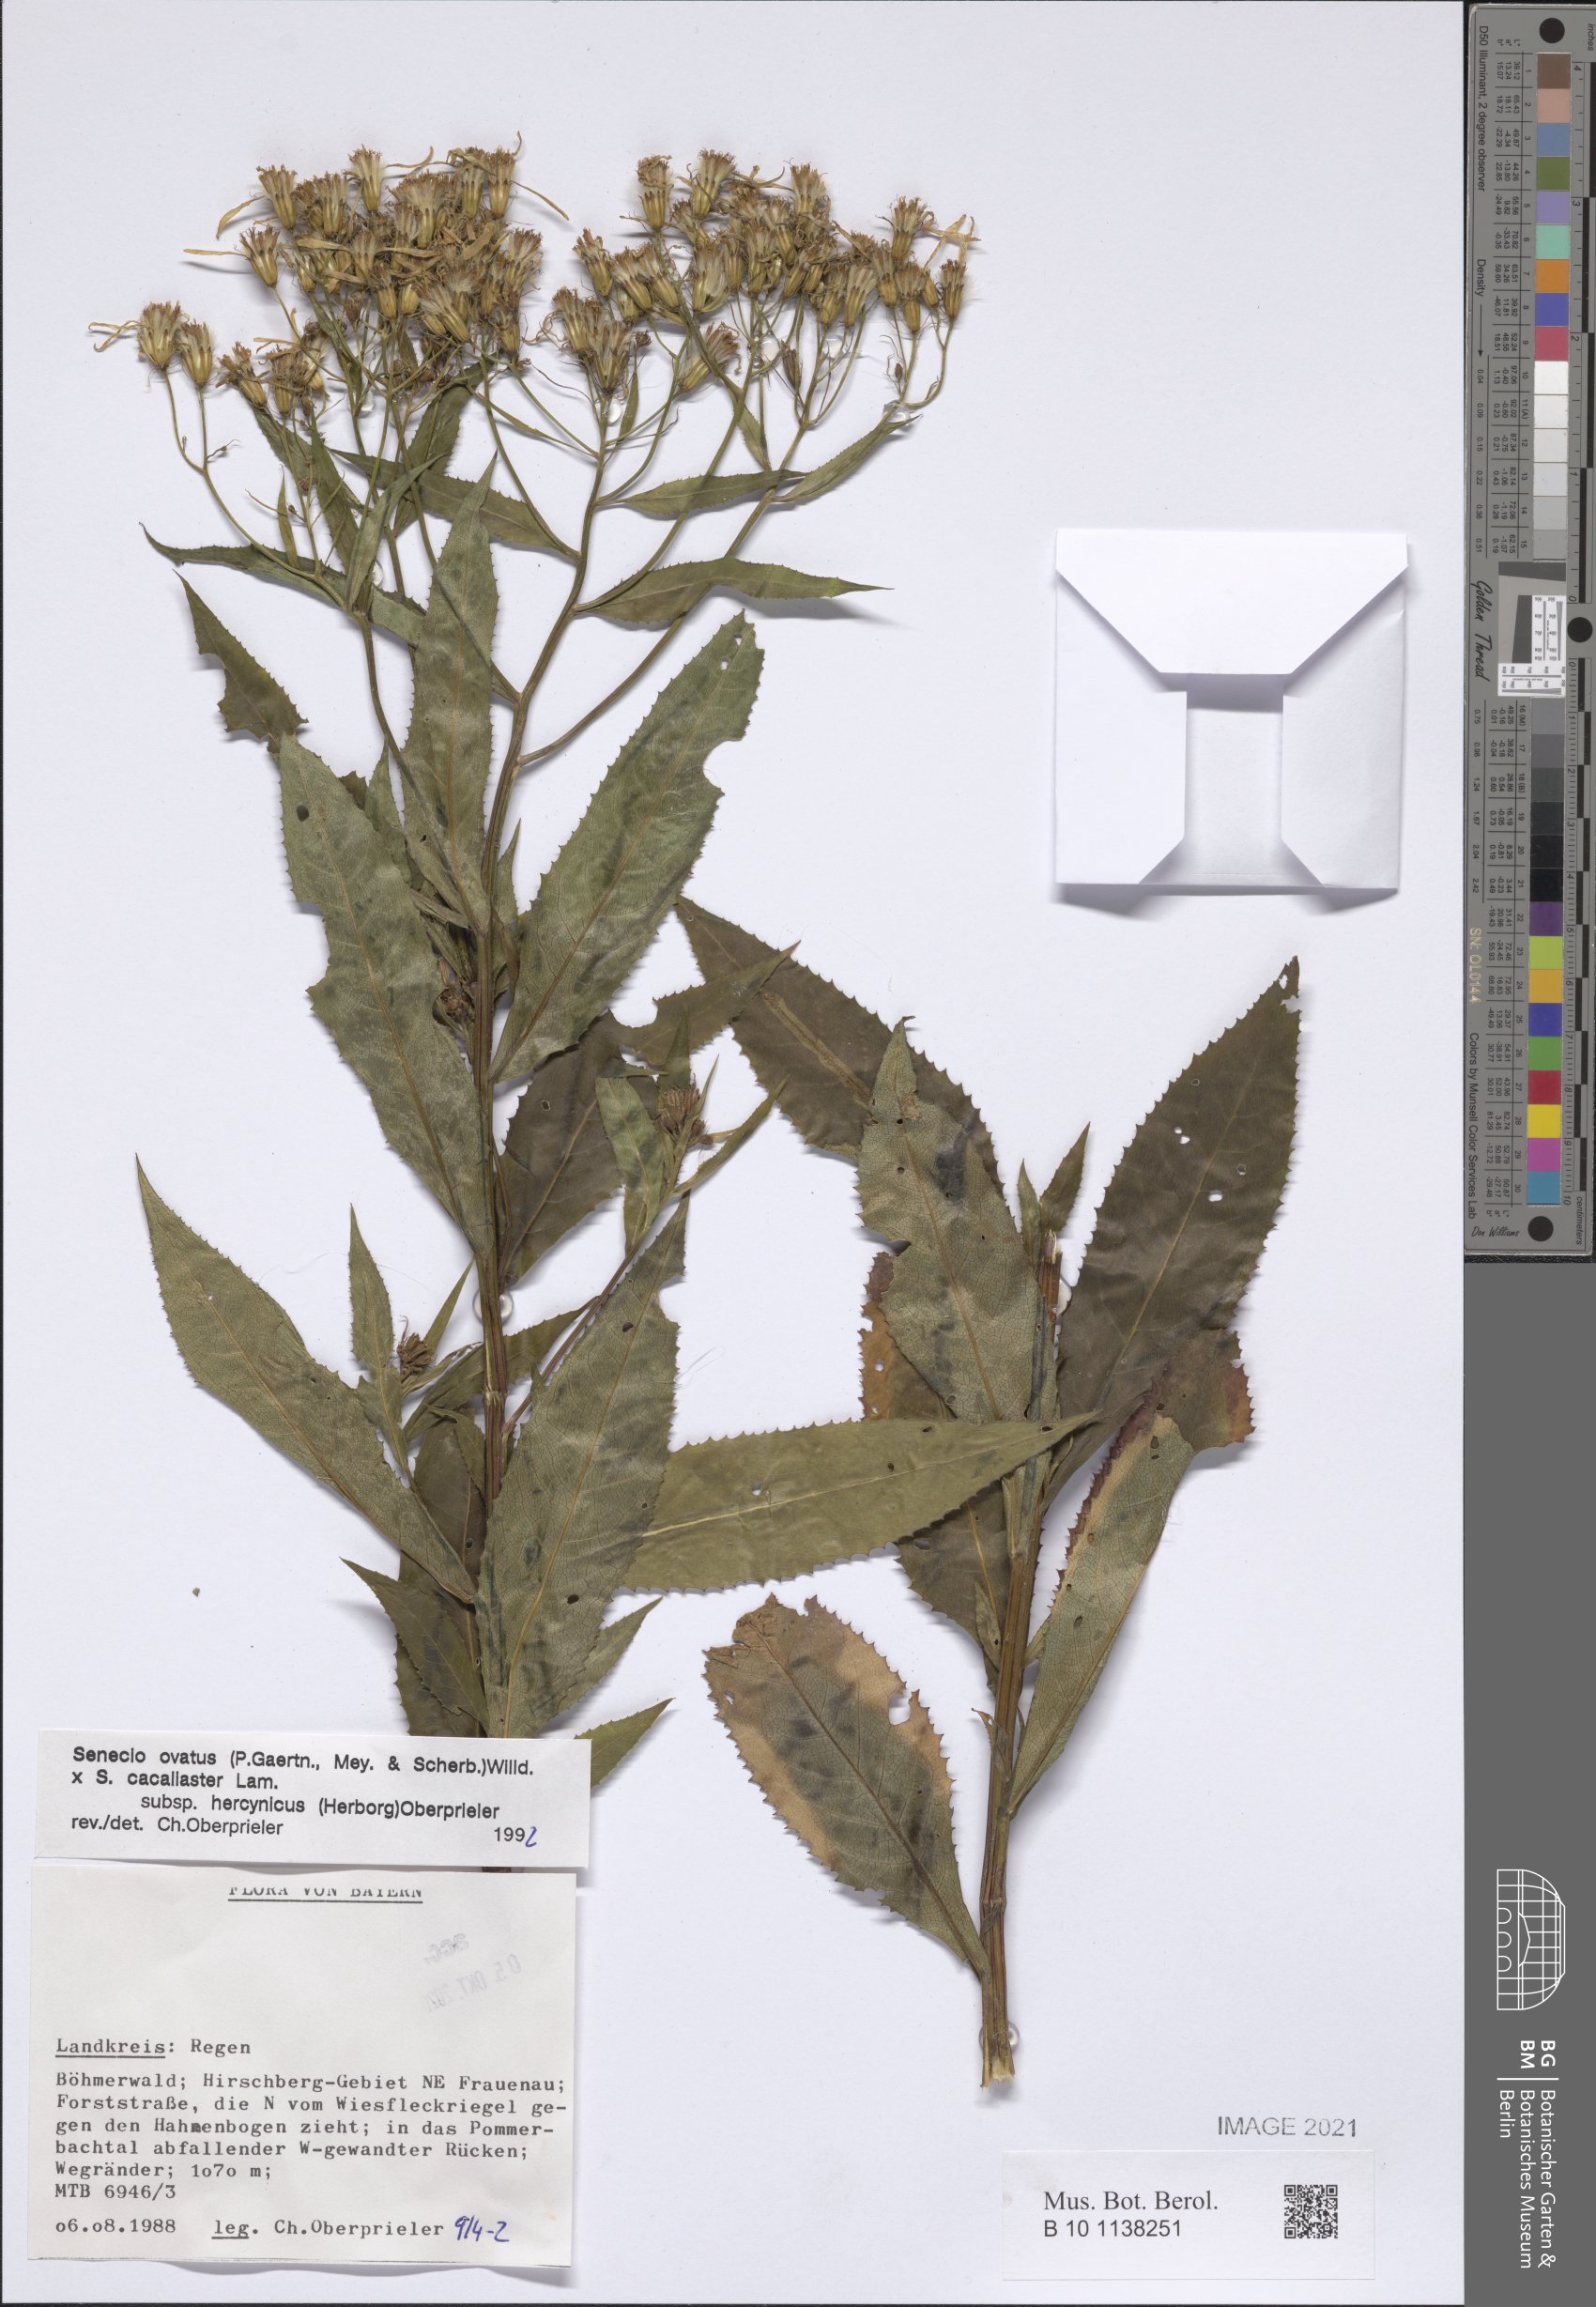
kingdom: Plantae
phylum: Tracheophyta
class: Magnoliopsida
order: Asterales
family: Asteraceae
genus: Senecio
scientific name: Senecio ovatus
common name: Wood ragwort
